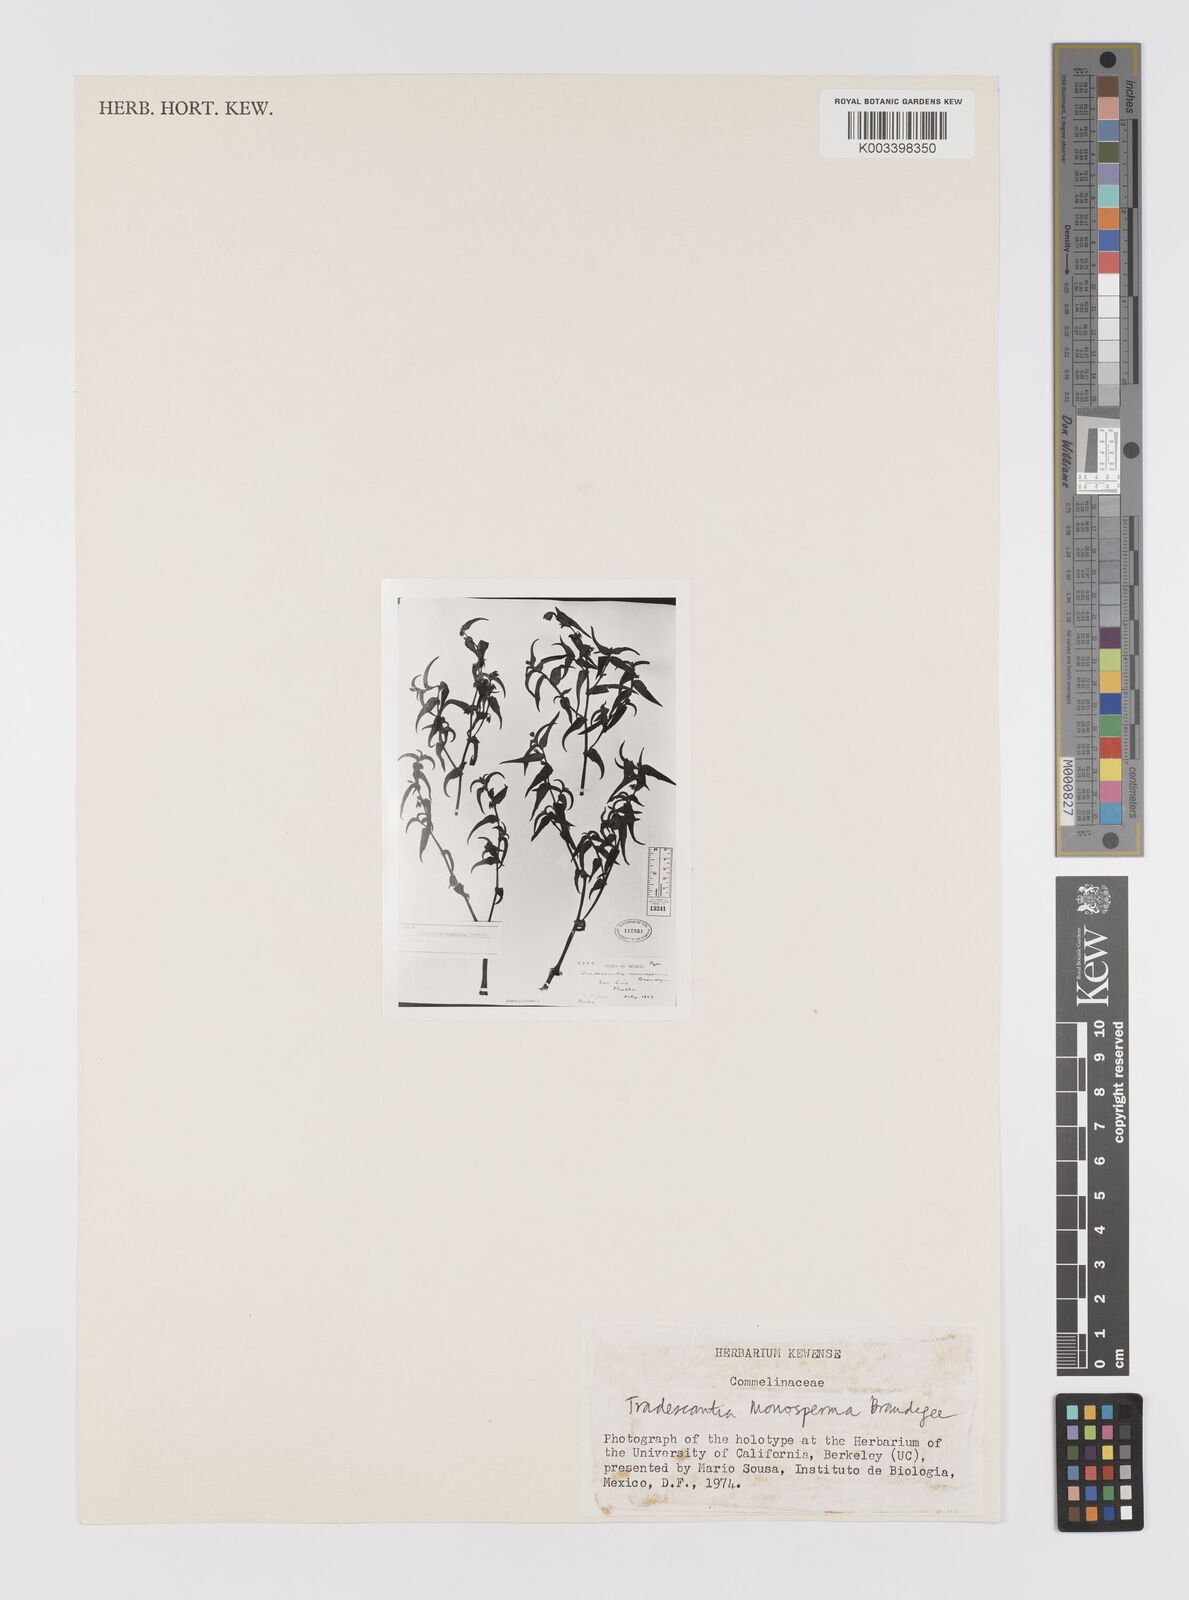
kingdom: Plantae
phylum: Tracheophyta
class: Liliopsida
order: Commelinales
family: Commelinaceae
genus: Tradescantia
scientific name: Tradescantia monosperma
